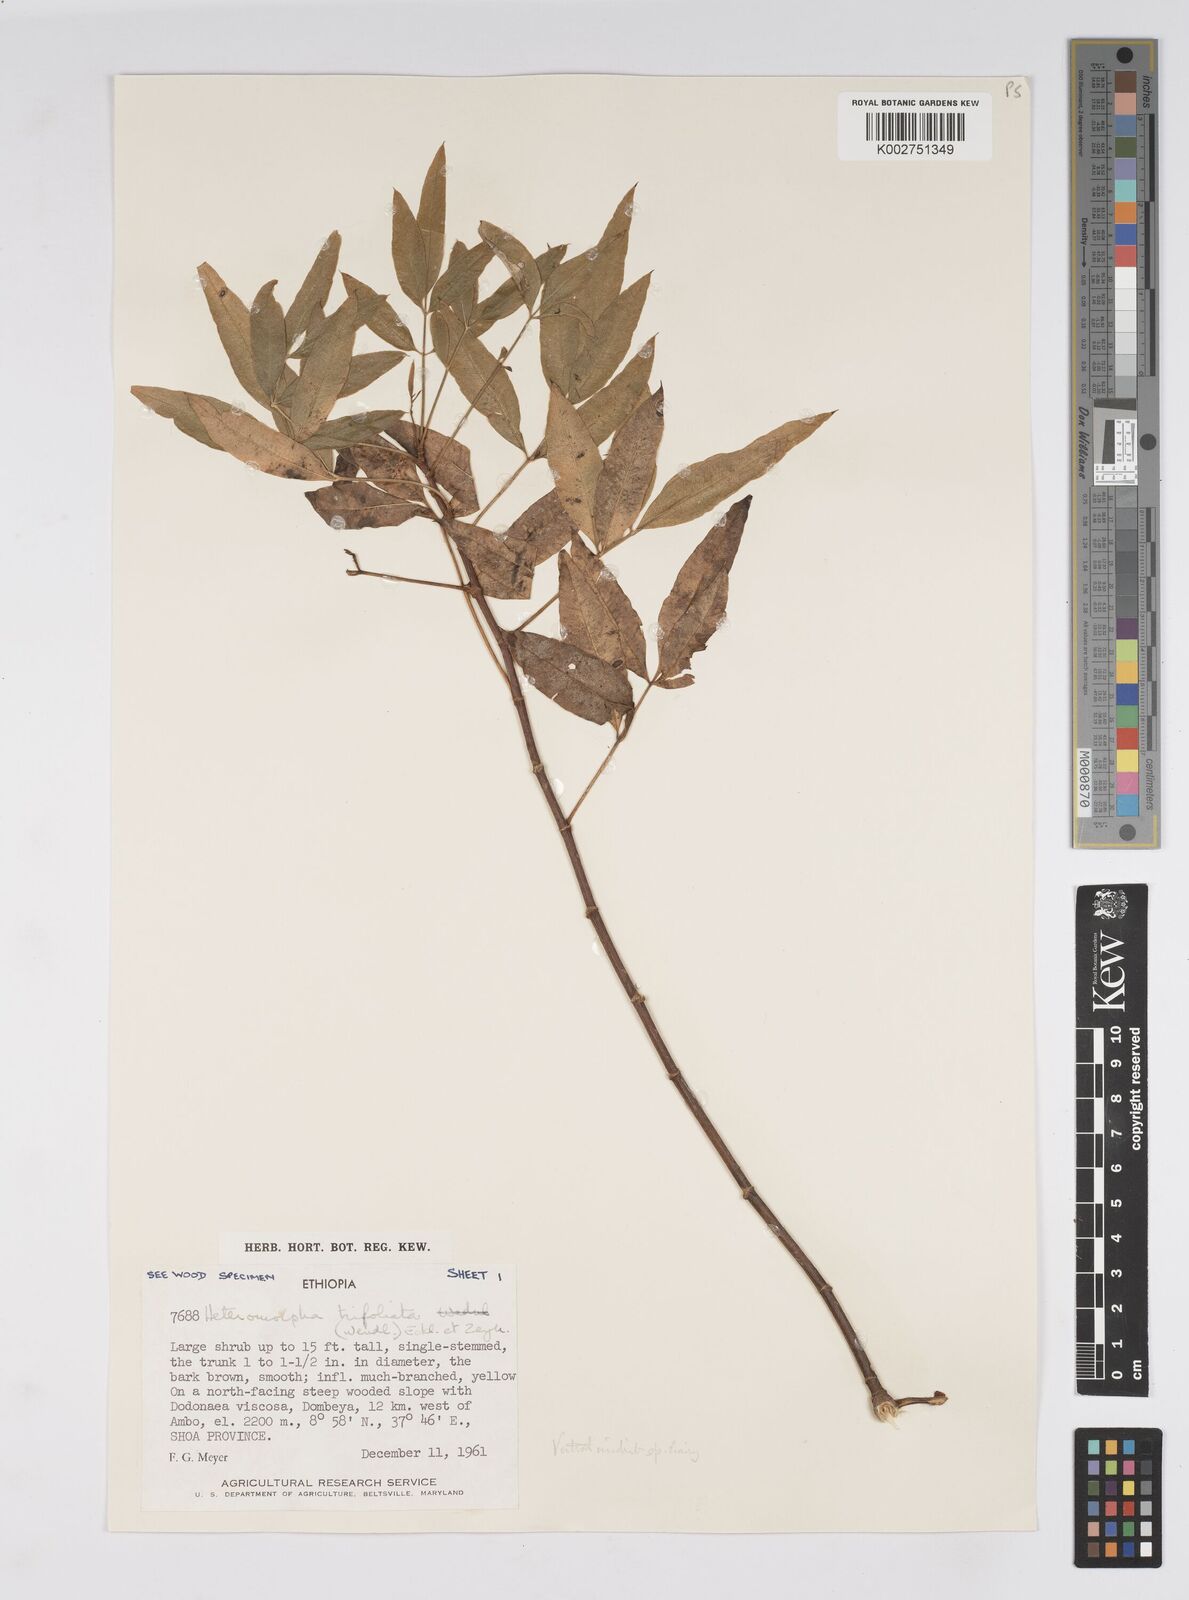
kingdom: Plantae
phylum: Tracheophyta
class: Magnoliopsida
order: Apiales
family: Apiaceae
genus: Heteromorpha
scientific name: Heteromorpha
